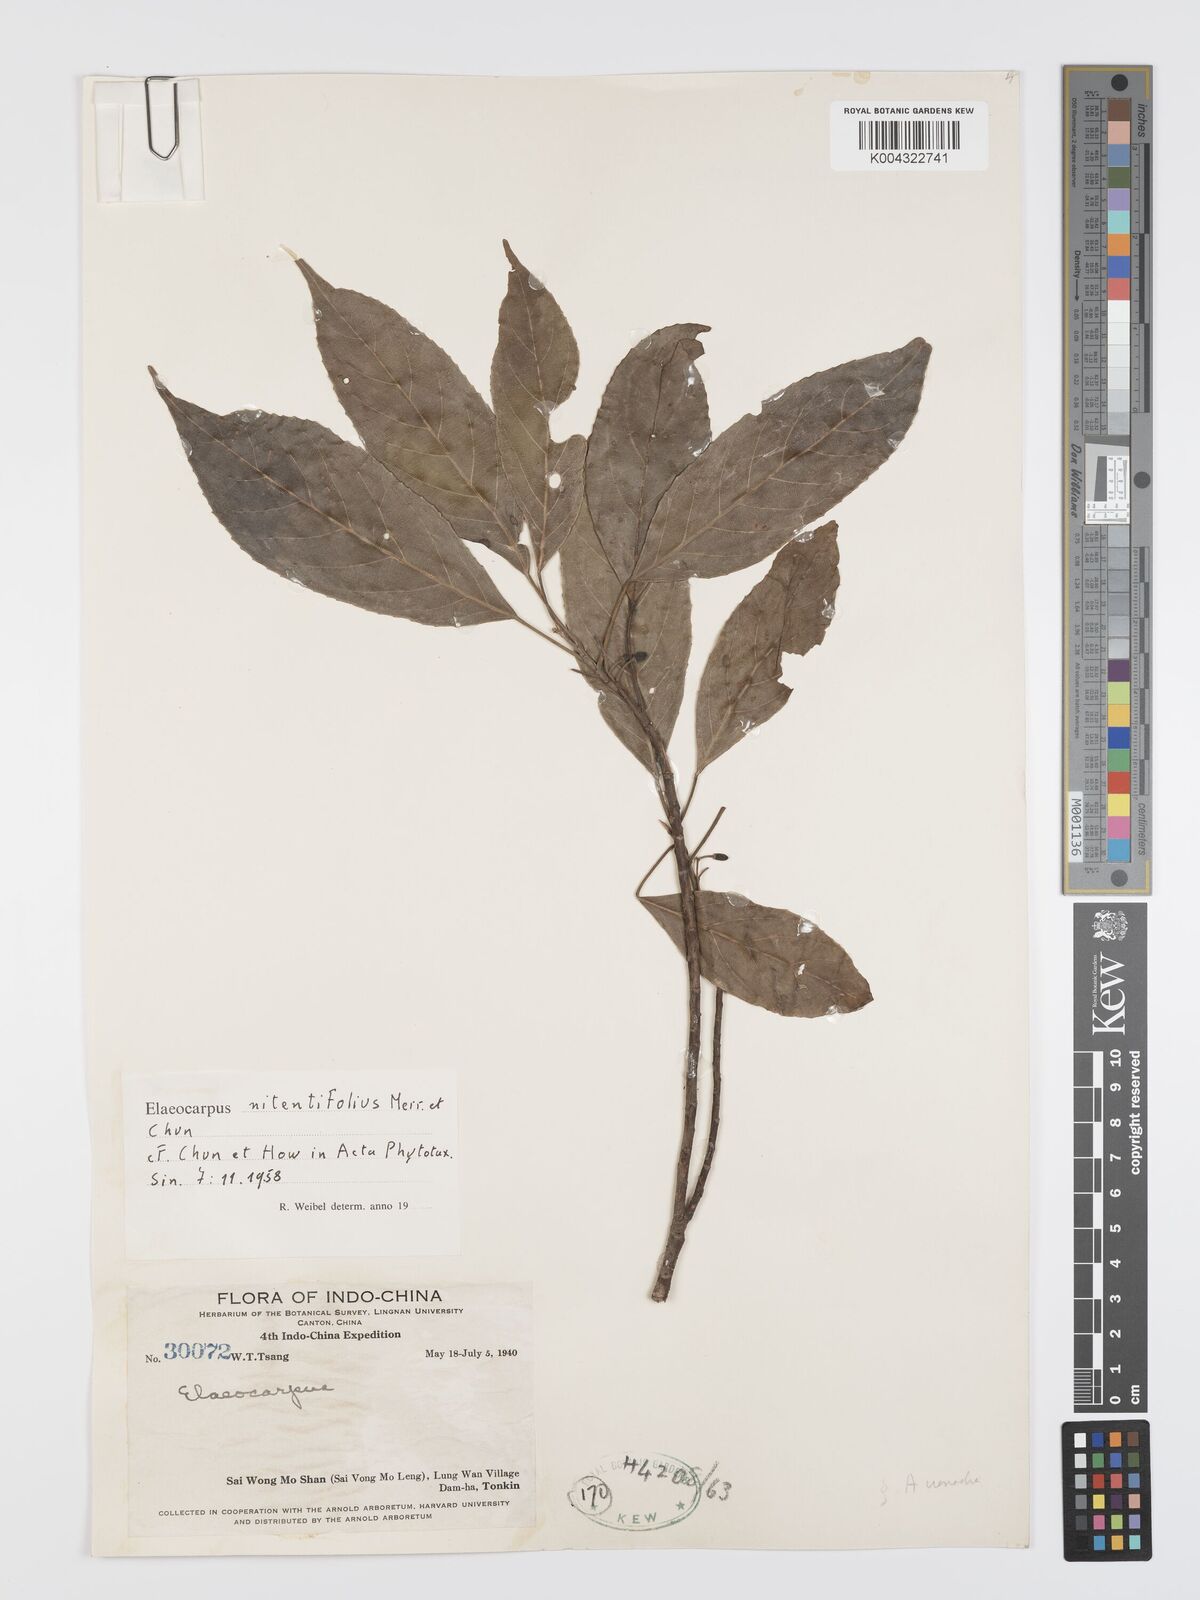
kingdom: Plantae
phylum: Tracheophyta
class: Magnoliopsida
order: Oxalidales
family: Elaeocarpaceae
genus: Elaeocarpus
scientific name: Elaeocarpus nitentifolius
